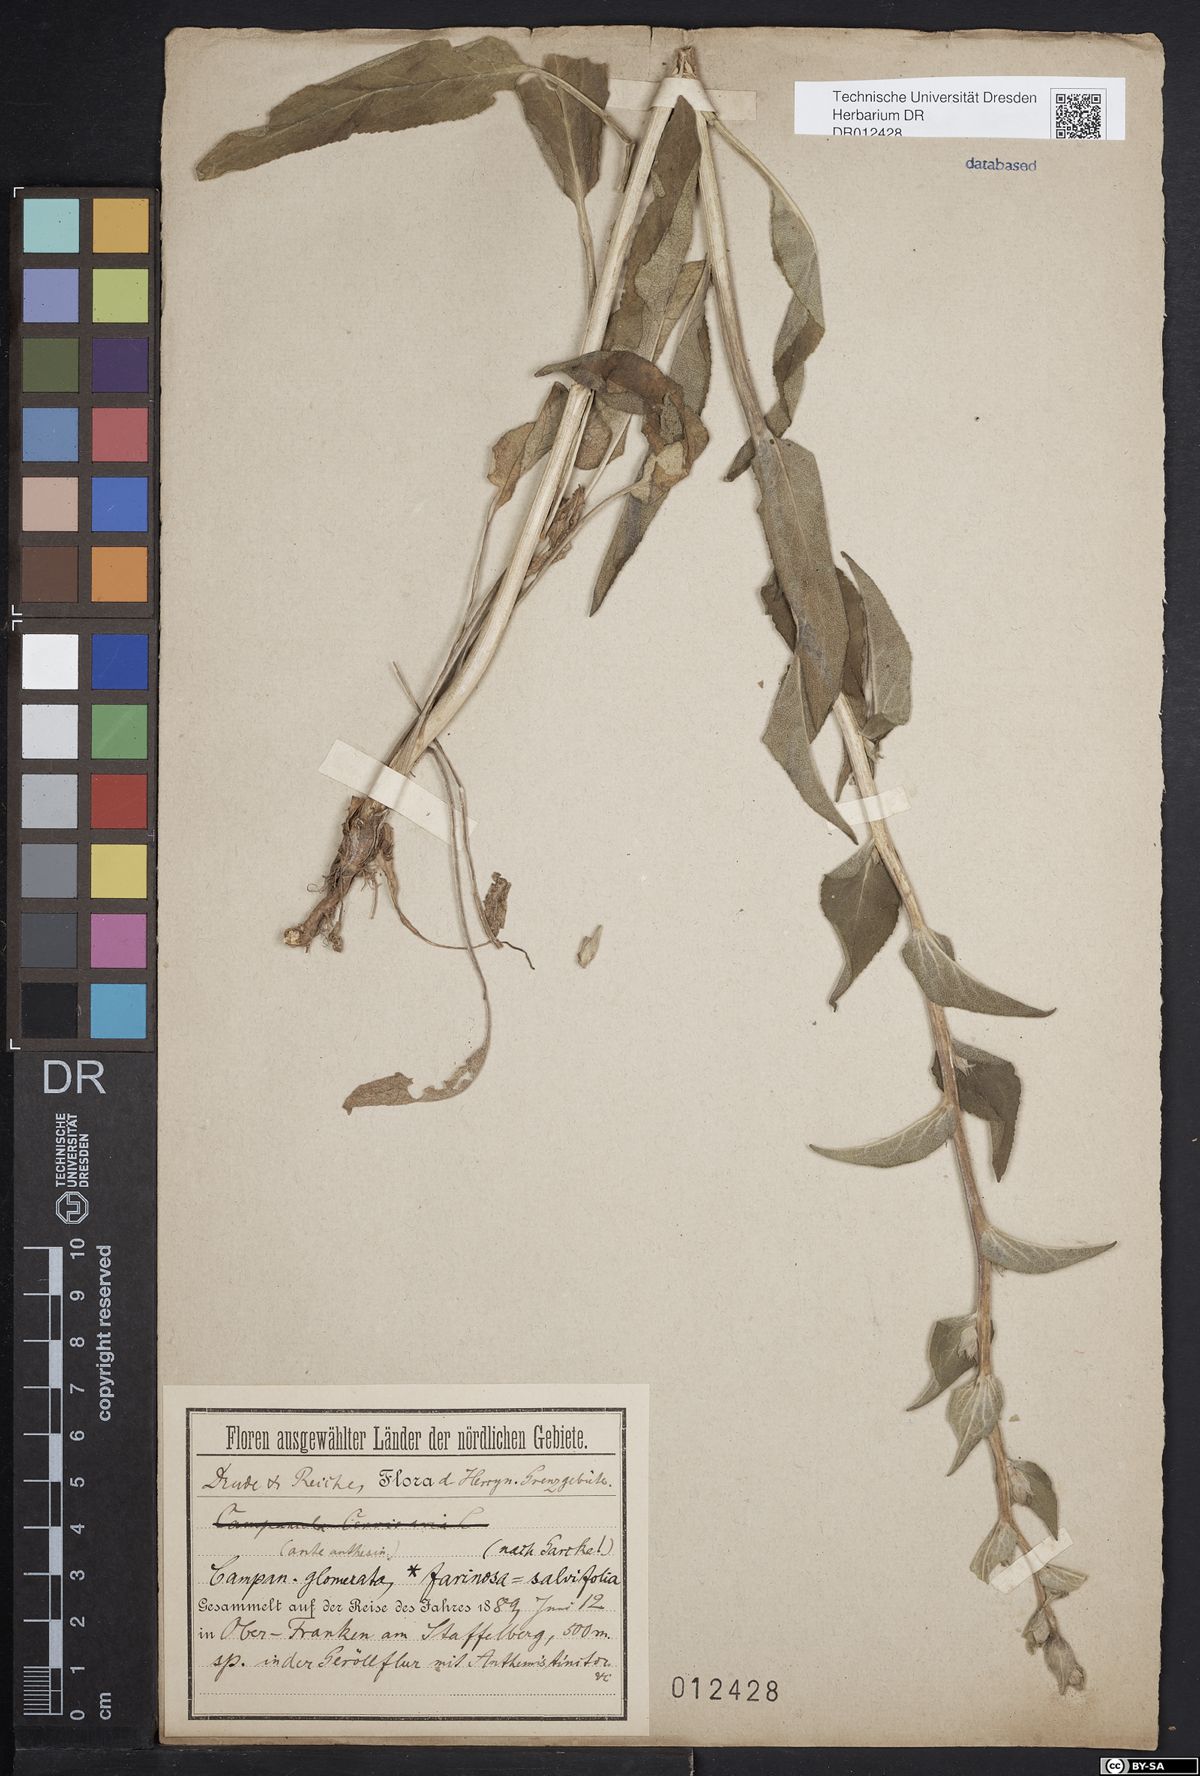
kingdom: Plantae
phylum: Tracheophyta
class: Magnoliopsida
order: Asterales
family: Campanulaceae
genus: Campanula
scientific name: Campanula glomerata
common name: Clustered bellflower
